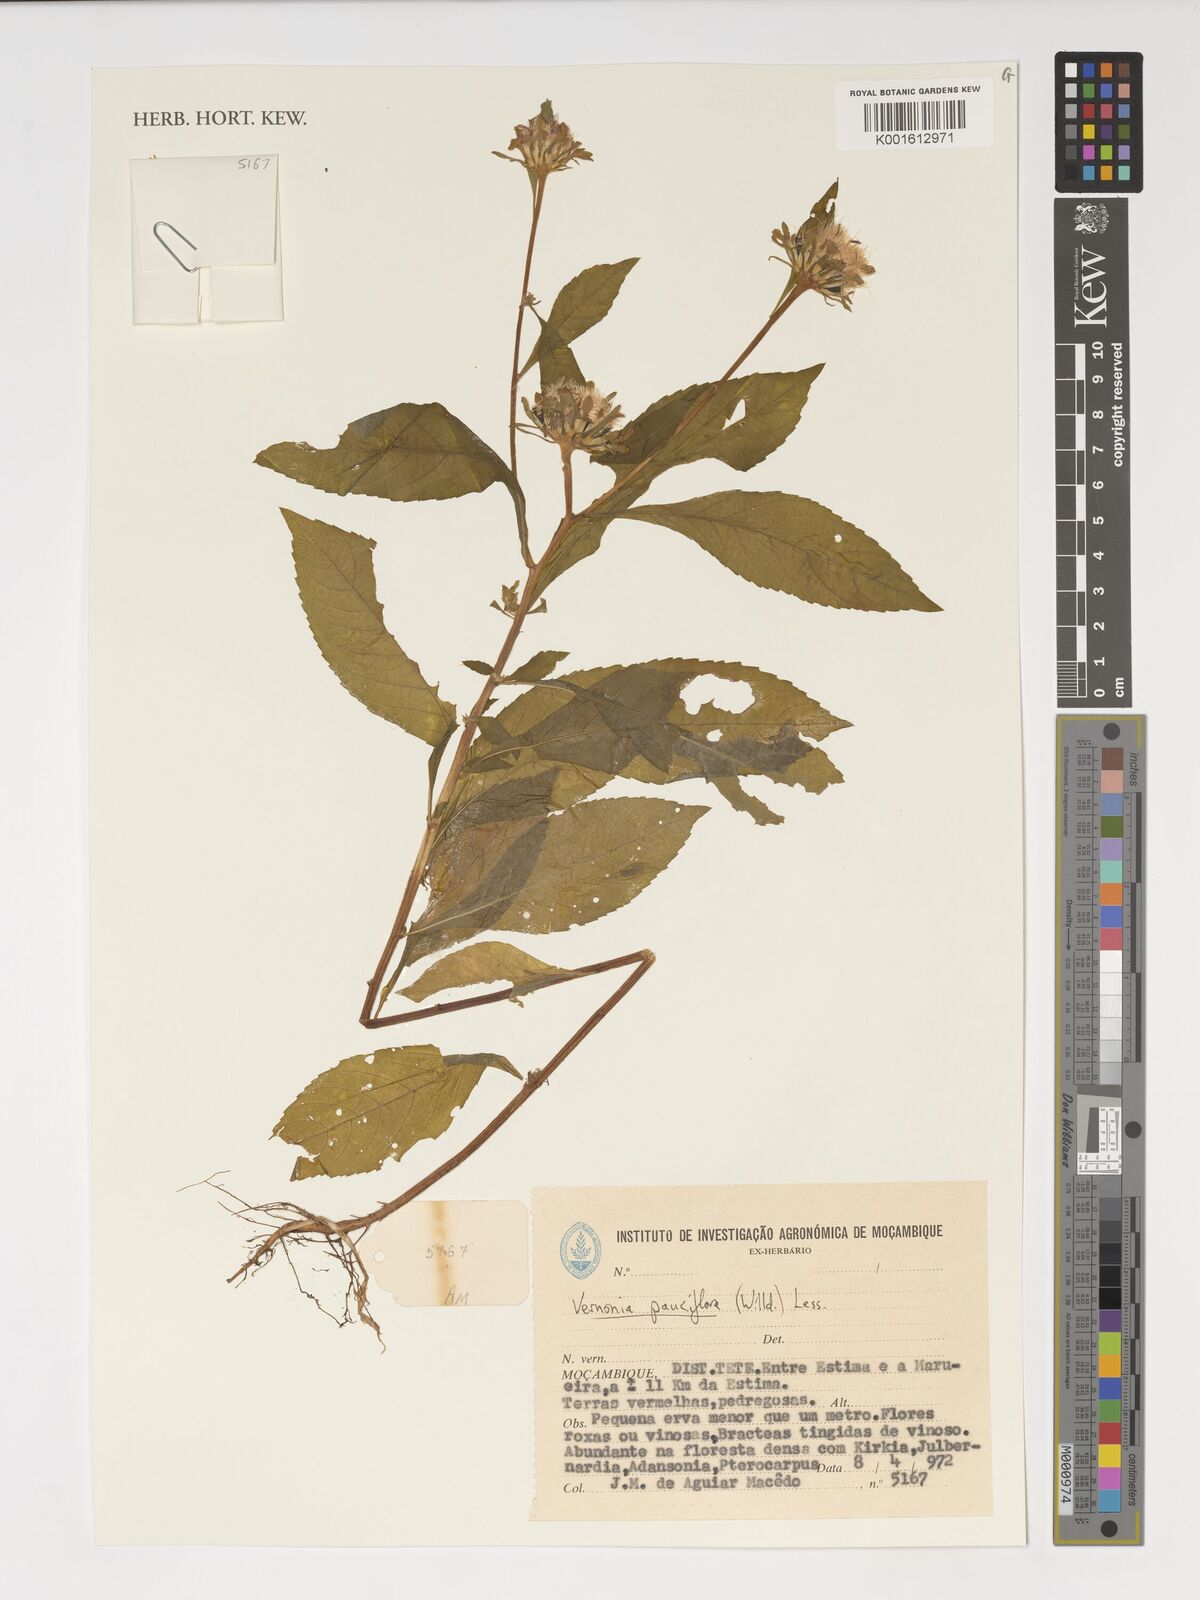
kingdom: Plantae
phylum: Tracheophyta
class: Magnoliopsida
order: Asterales
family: Asteraceae
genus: Vernonia
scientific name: Vernonia galamensis
